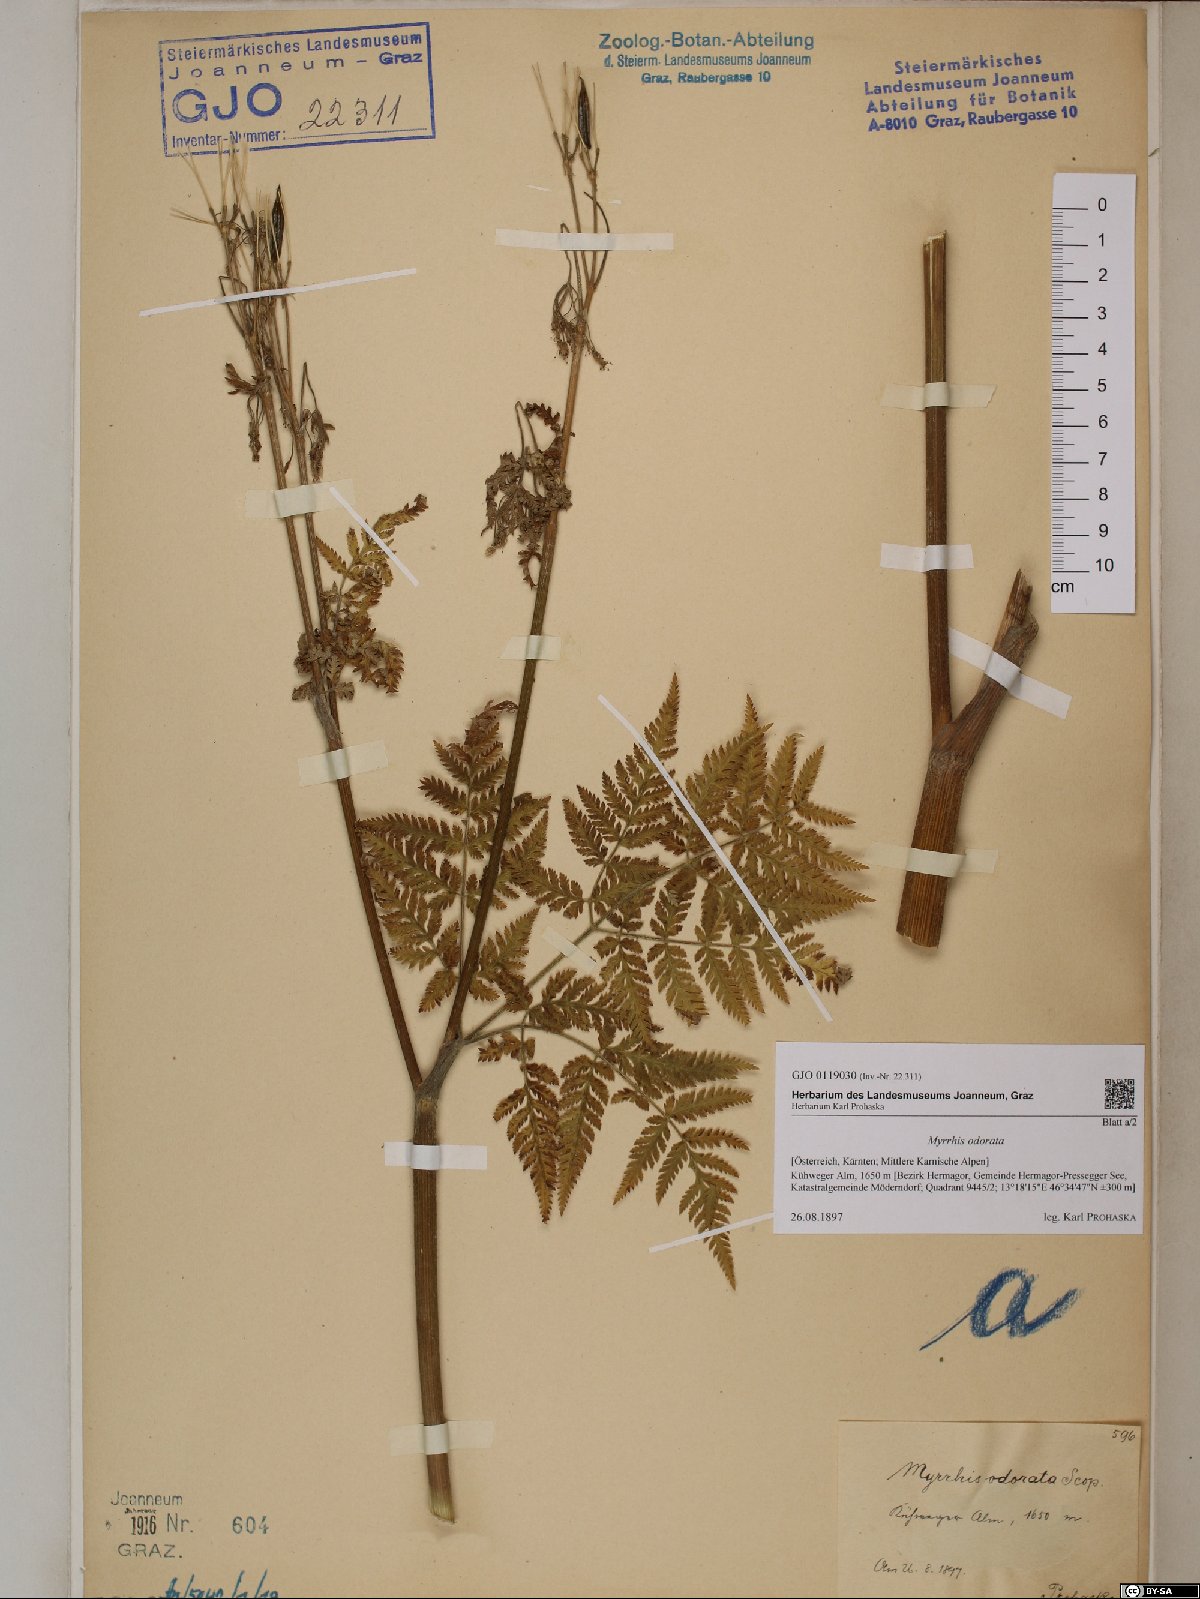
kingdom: Plantae
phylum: Tracheophyta
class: Magnoliopsida
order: Apiales
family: Apiaceae
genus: Myrrhis
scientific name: Myrrhis odorata
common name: Sweet cicely
